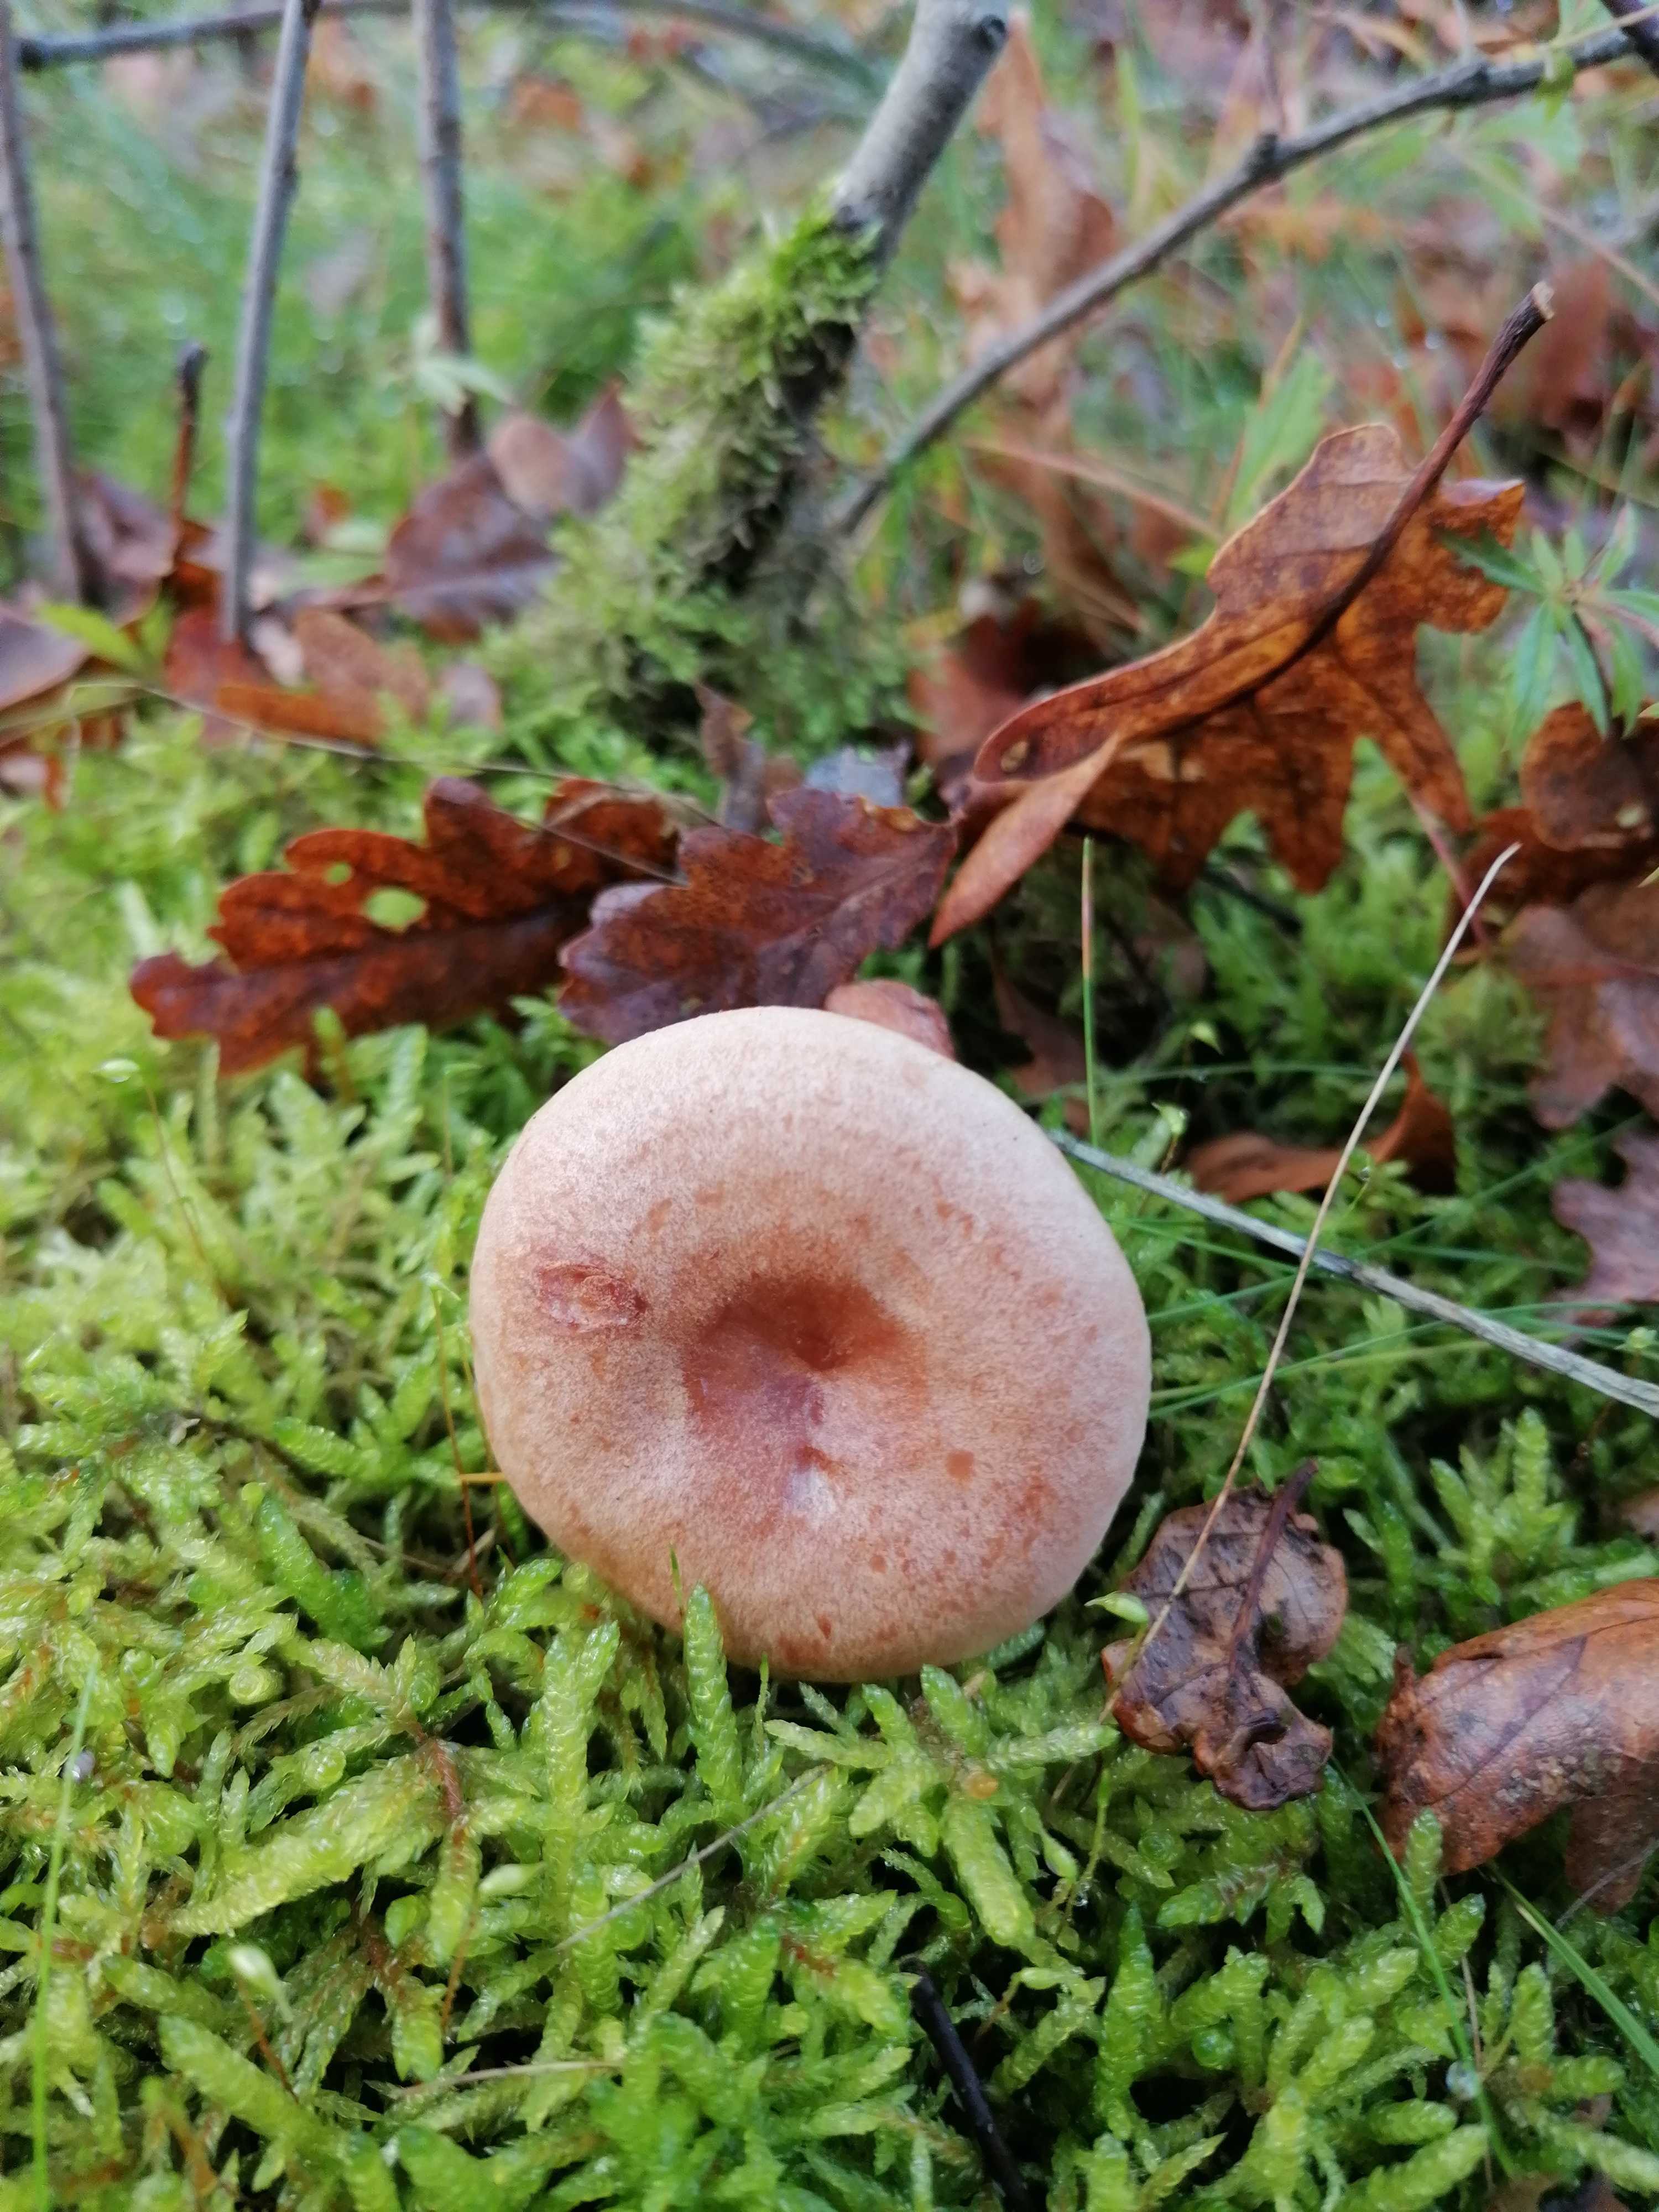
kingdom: Fungi
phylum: Basidiomycota
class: Agaricomycetes
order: Russulales
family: Russulaceae
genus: Lactarius
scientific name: Lactarius quietus
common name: ege-mælkehat
